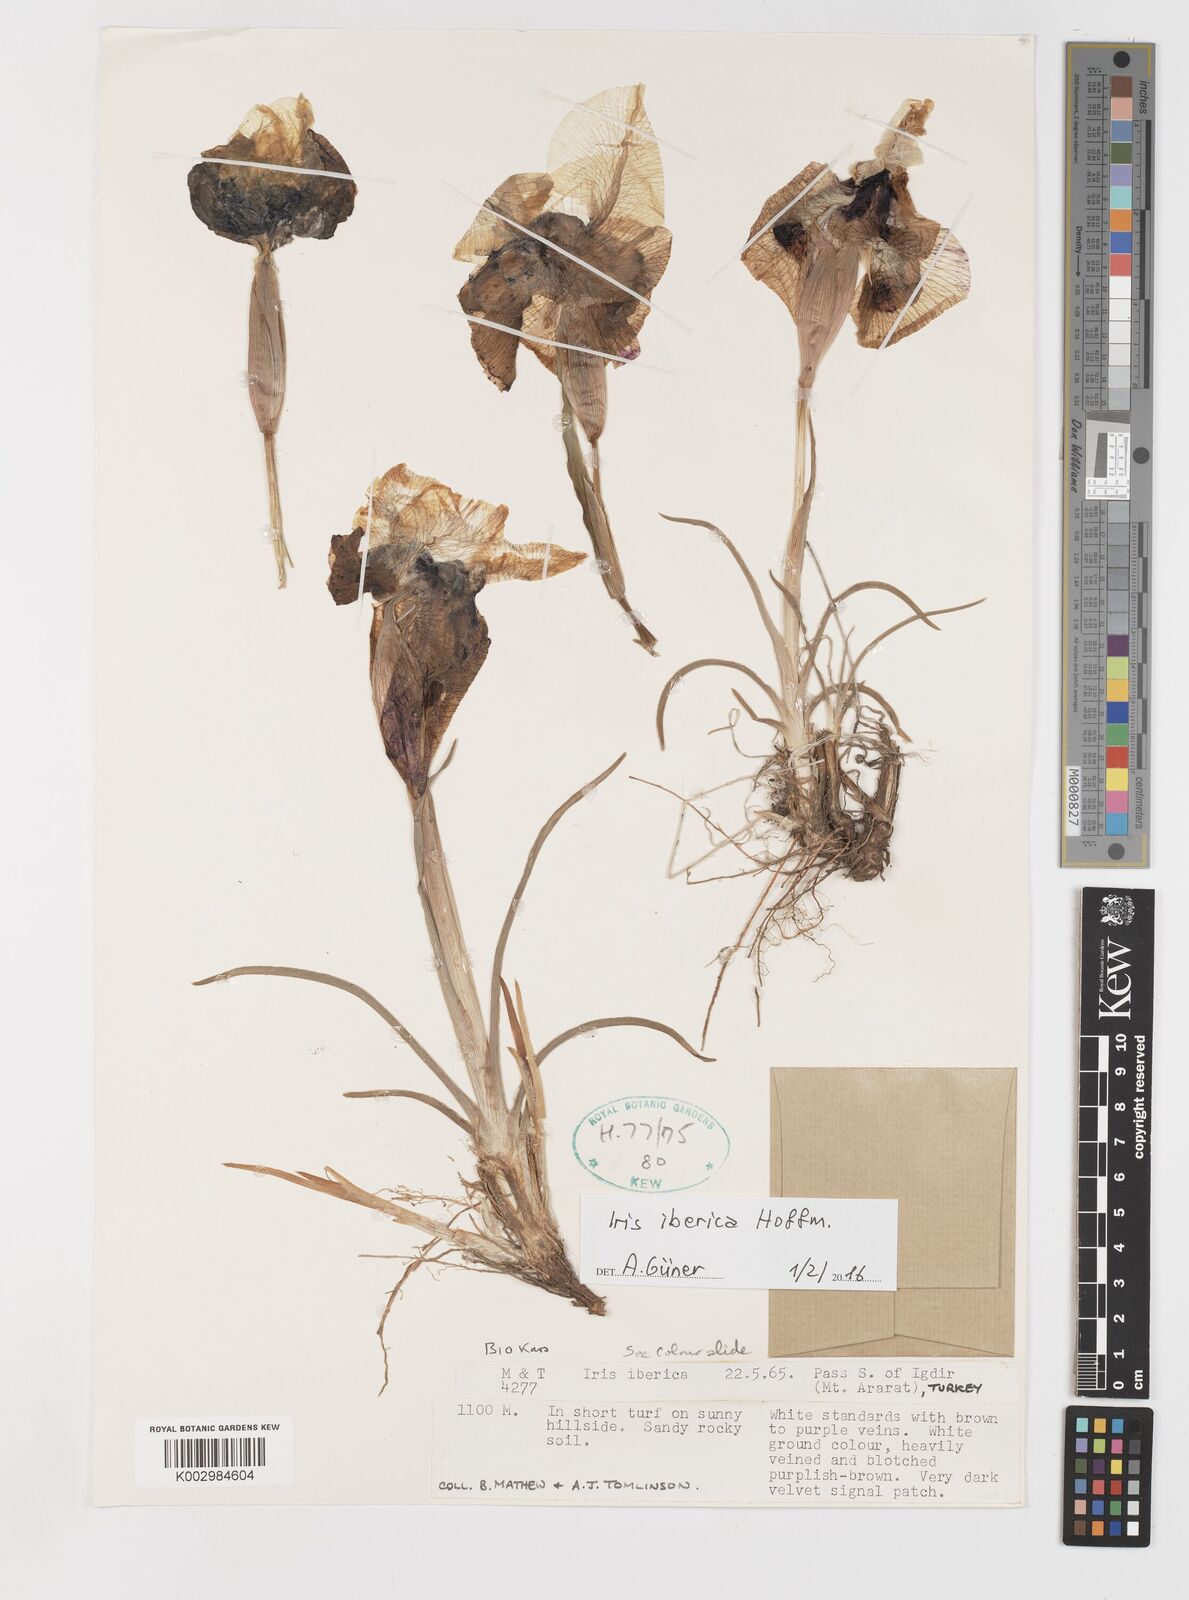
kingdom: Plantae
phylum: Tracheophyta
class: Liliopsida
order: Asparagales
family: Iridaceae
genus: Iris
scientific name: Iris iberica
